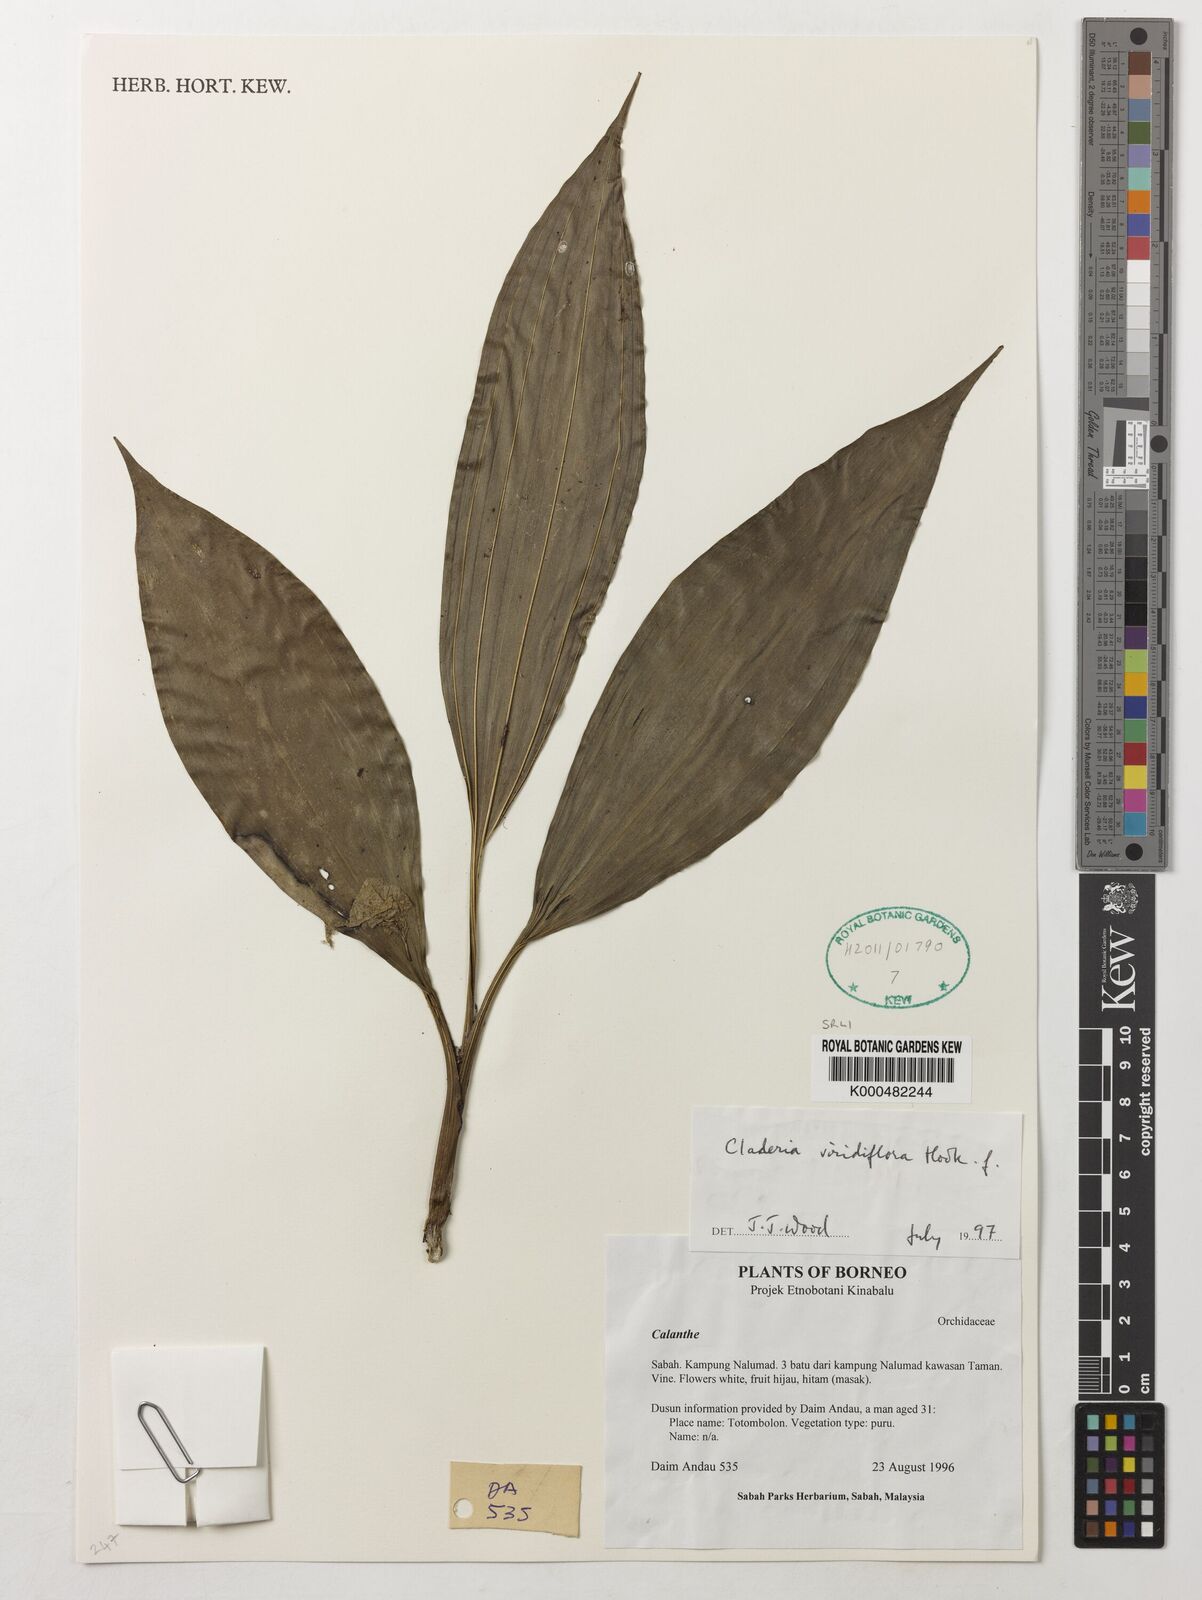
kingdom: Plantae
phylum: Tracheophyta
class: Liliopsida
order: Asparagales
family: Orchidaceae
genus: Claderia
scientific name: Claderia
